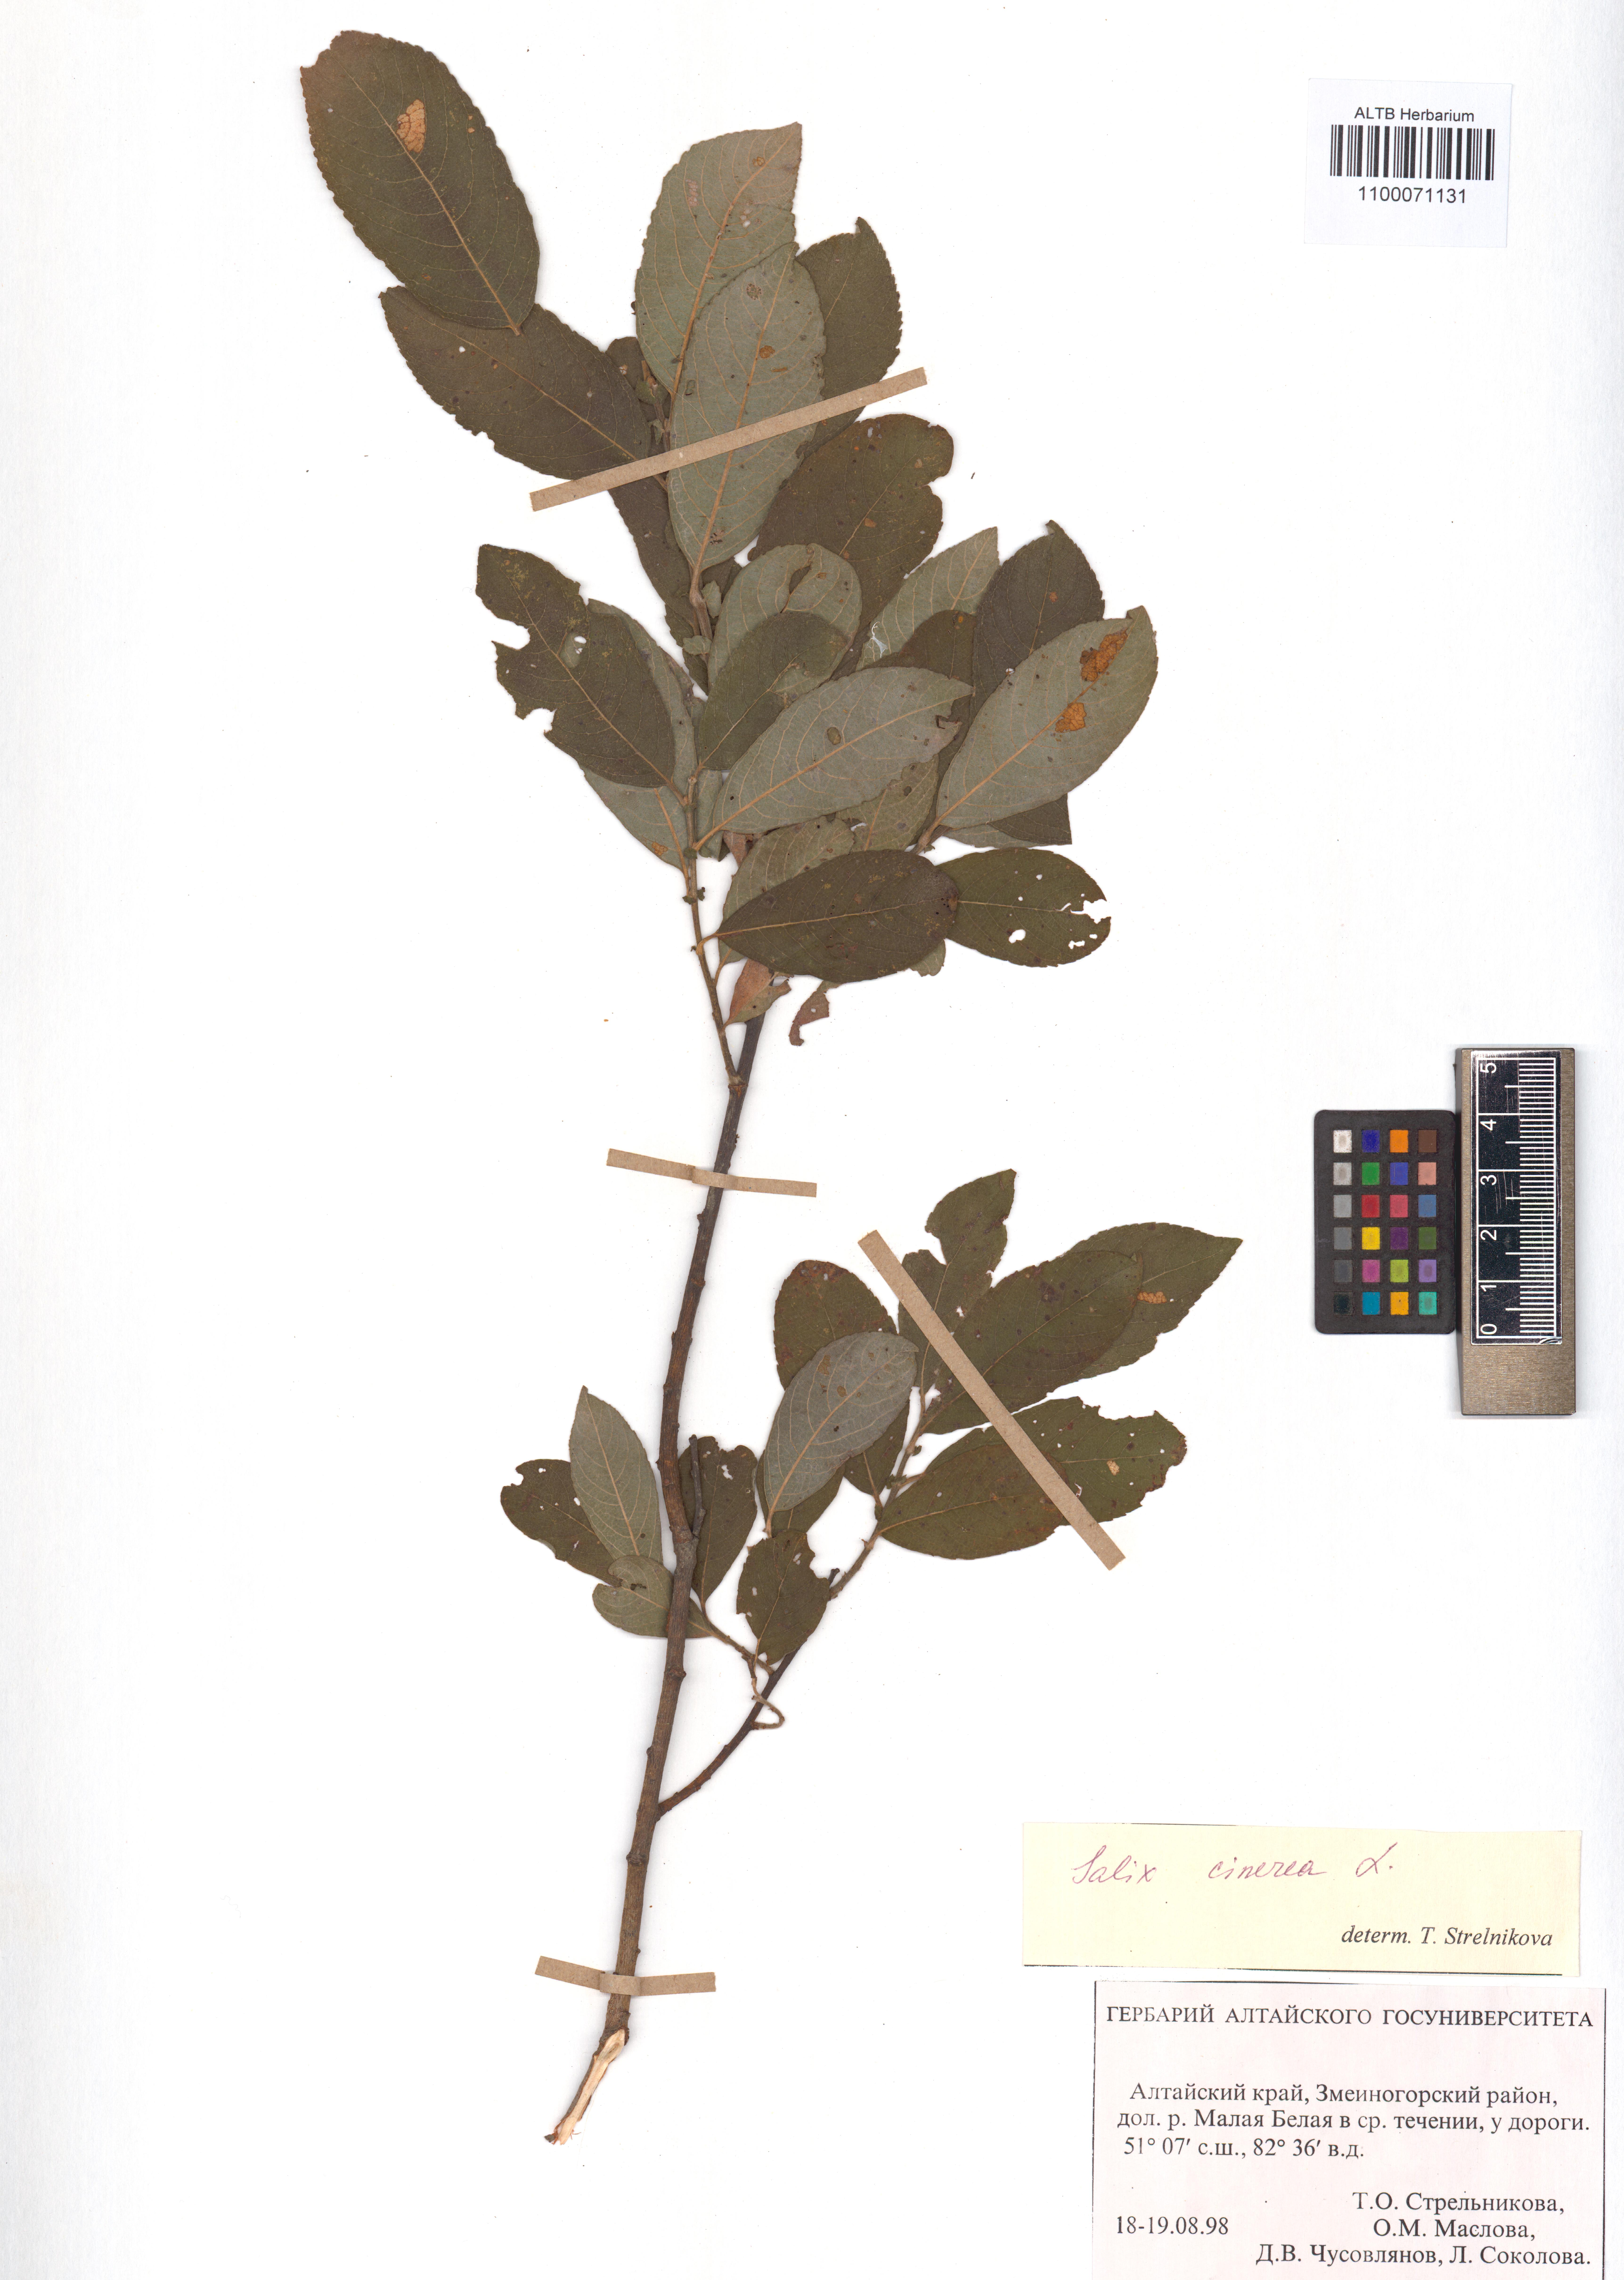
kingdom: Plantae
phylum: Tracheophyta
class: Magnoliopsida
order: Malpighiales
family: Salicaceae
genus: Salix
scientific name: Salix cinerea
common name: Common sallow
